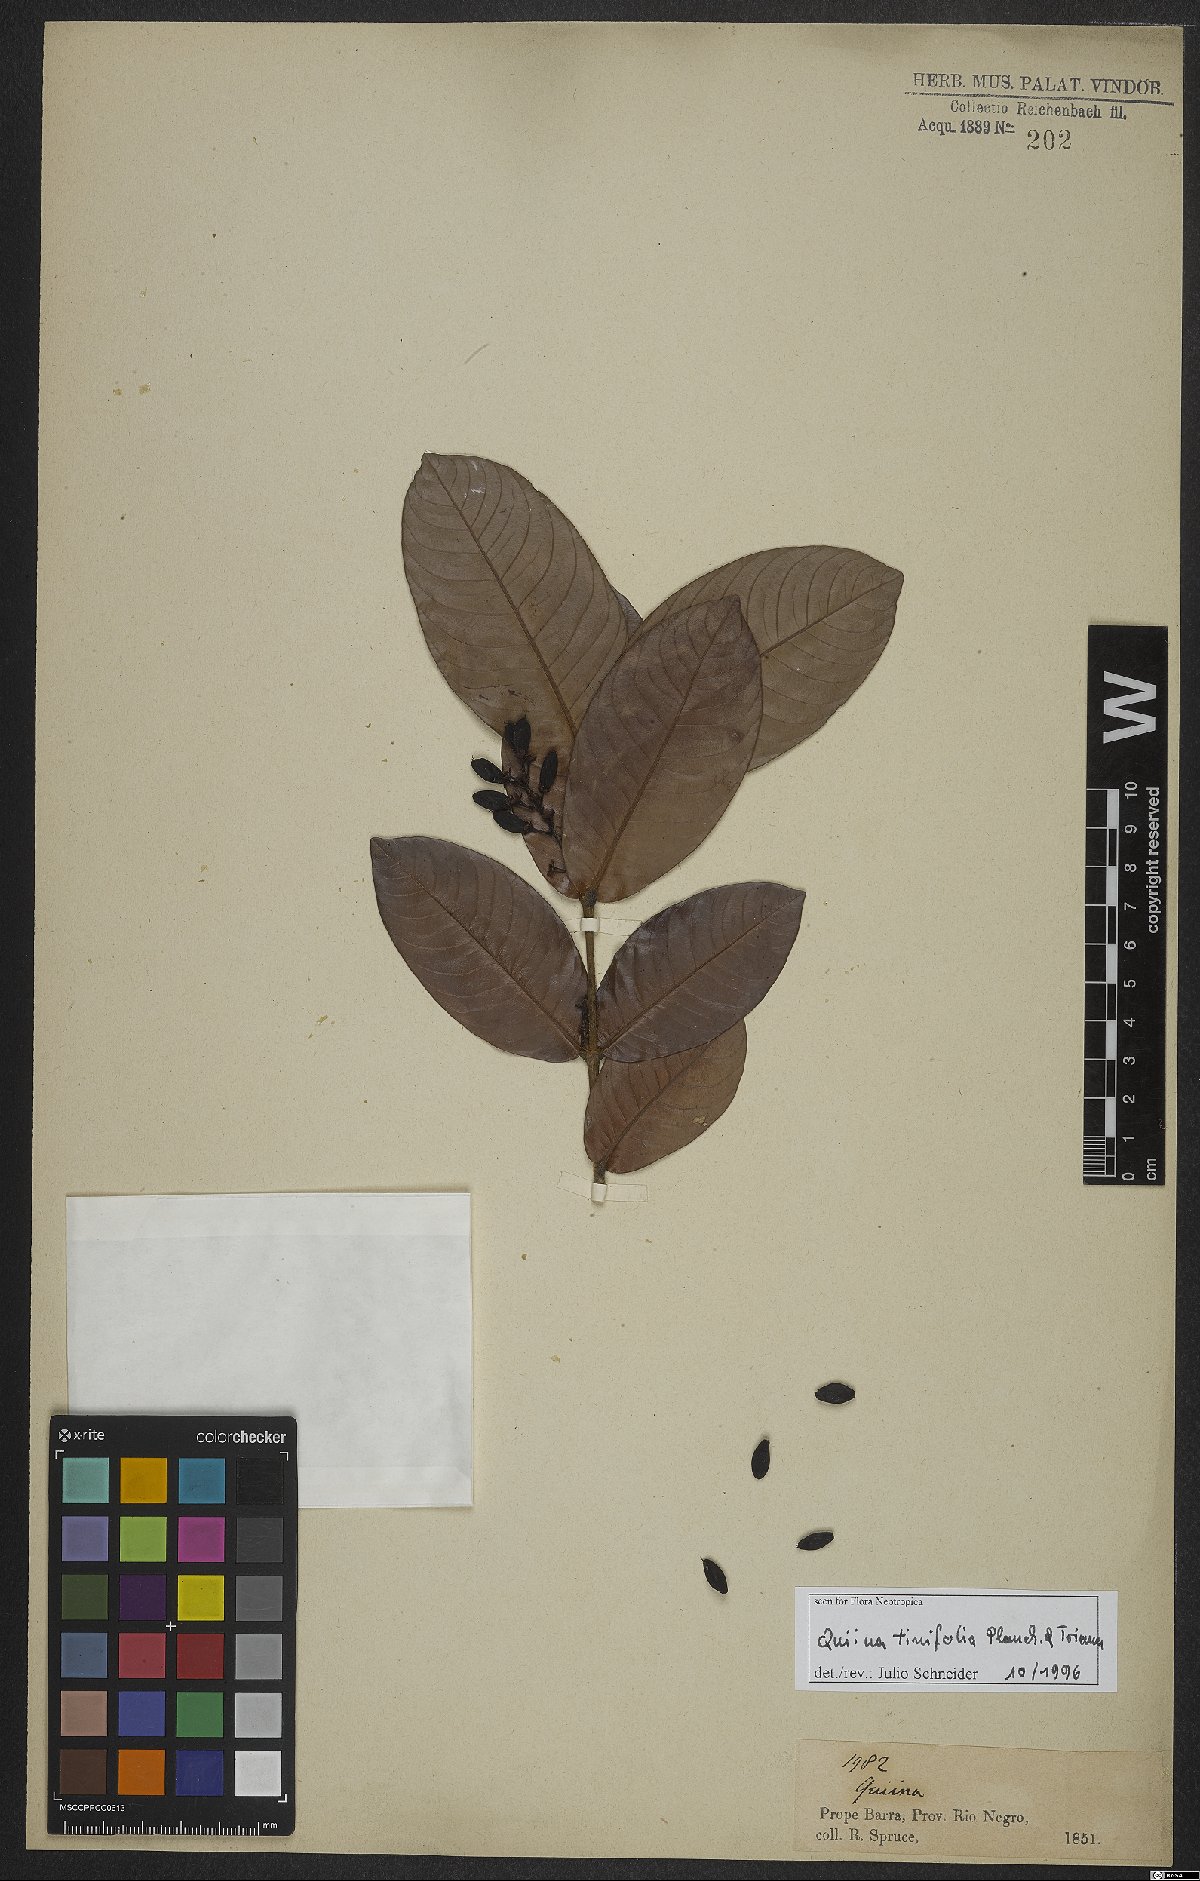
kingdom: Plantae
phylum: Tracheophyta
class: Magnoliopsida
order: Malpighiales
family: Quiinaceae
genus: Quiina
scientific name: Quiina tinifolia
